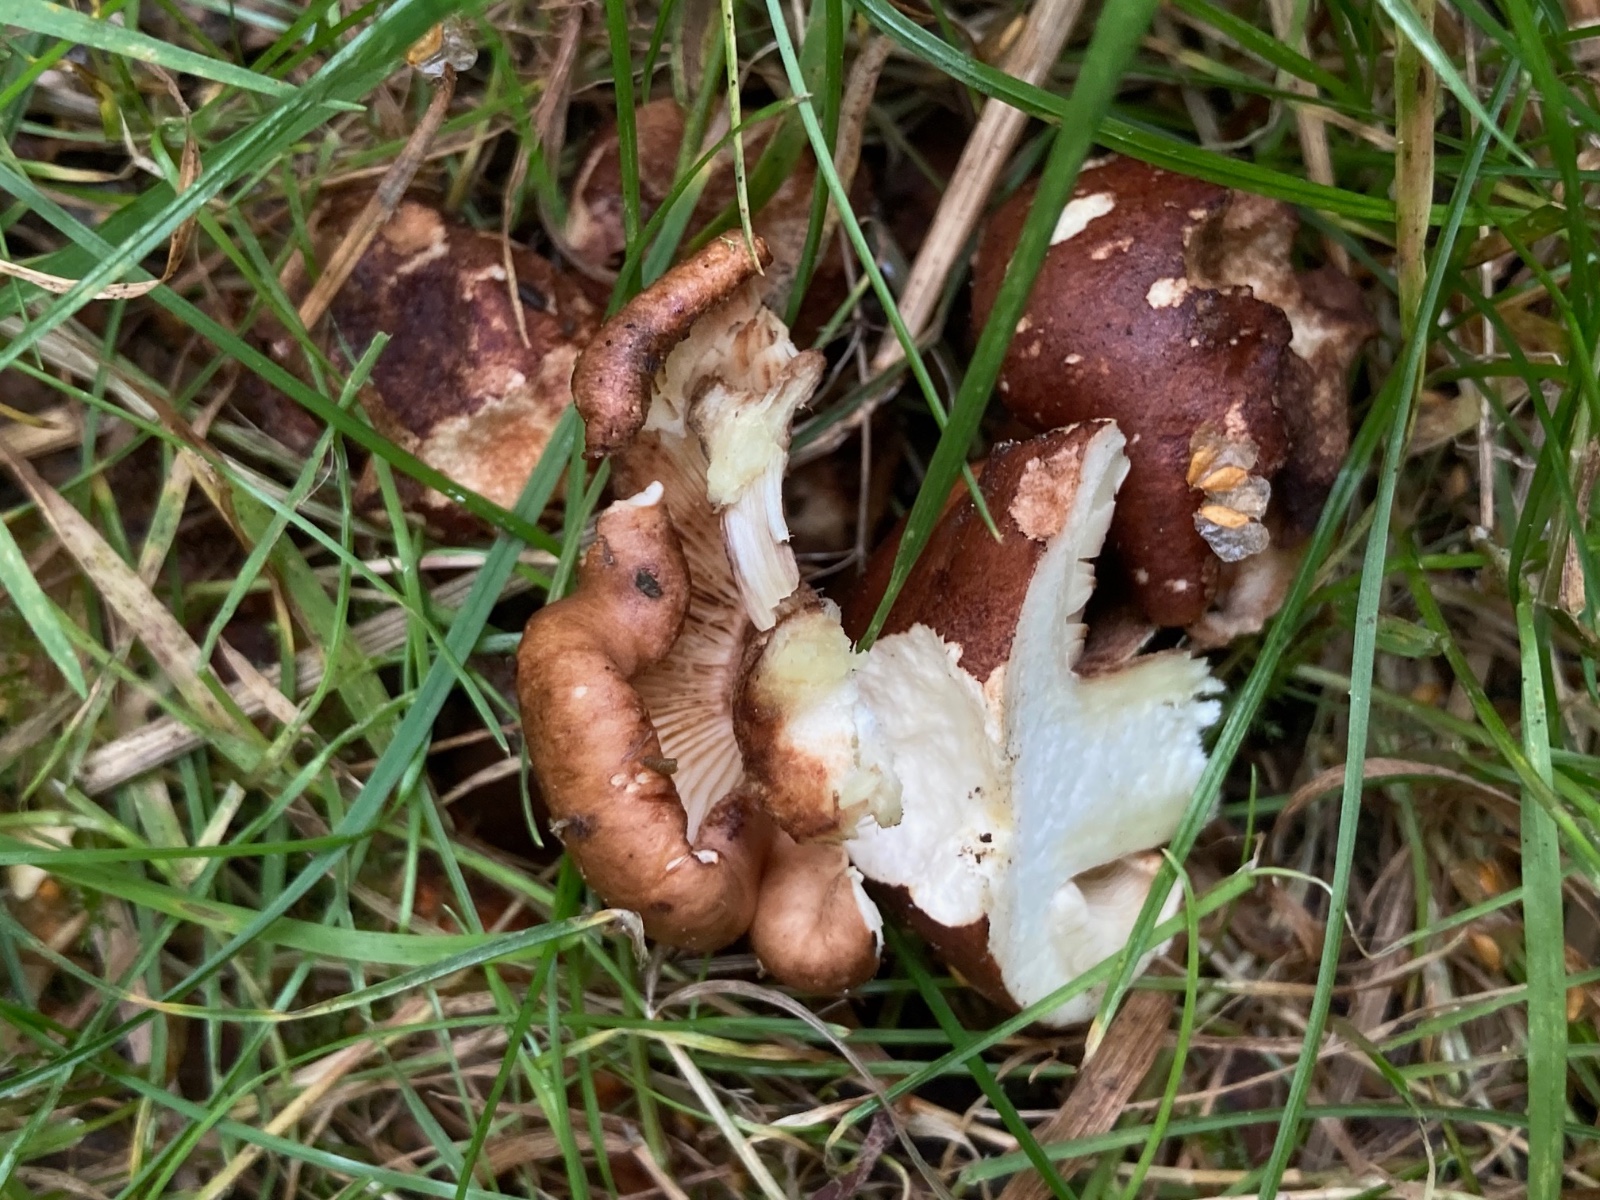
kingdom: Fungi
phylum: Basidiomycota
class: Agaricomycetes
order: Agaricales
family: Tricholomataceae
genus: Tricholoma
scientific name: Tricholoma fulvum
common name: birke-ridderhat
